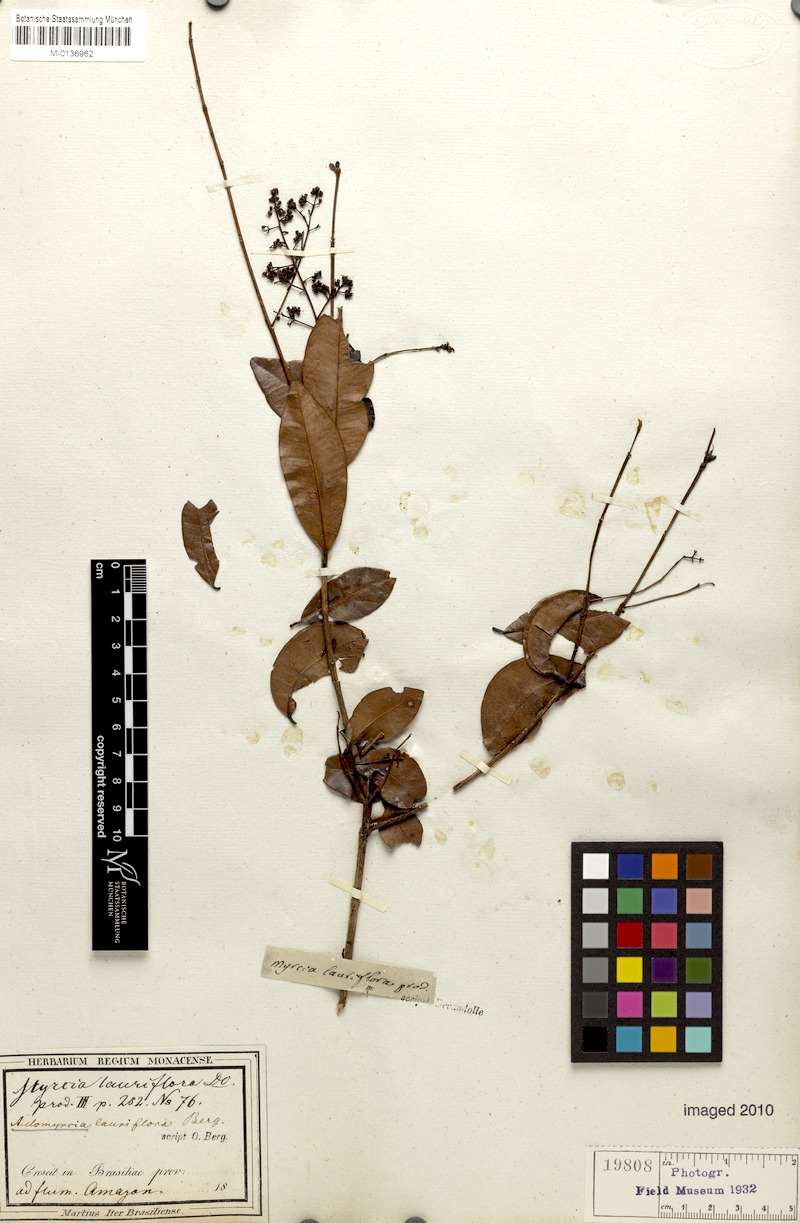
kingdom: Plantae
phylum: Tracheophyta
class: Magnoliopsida
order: Myrtales
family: Myrtaceae
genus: Myrcia
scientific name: Myrcia guianensis
